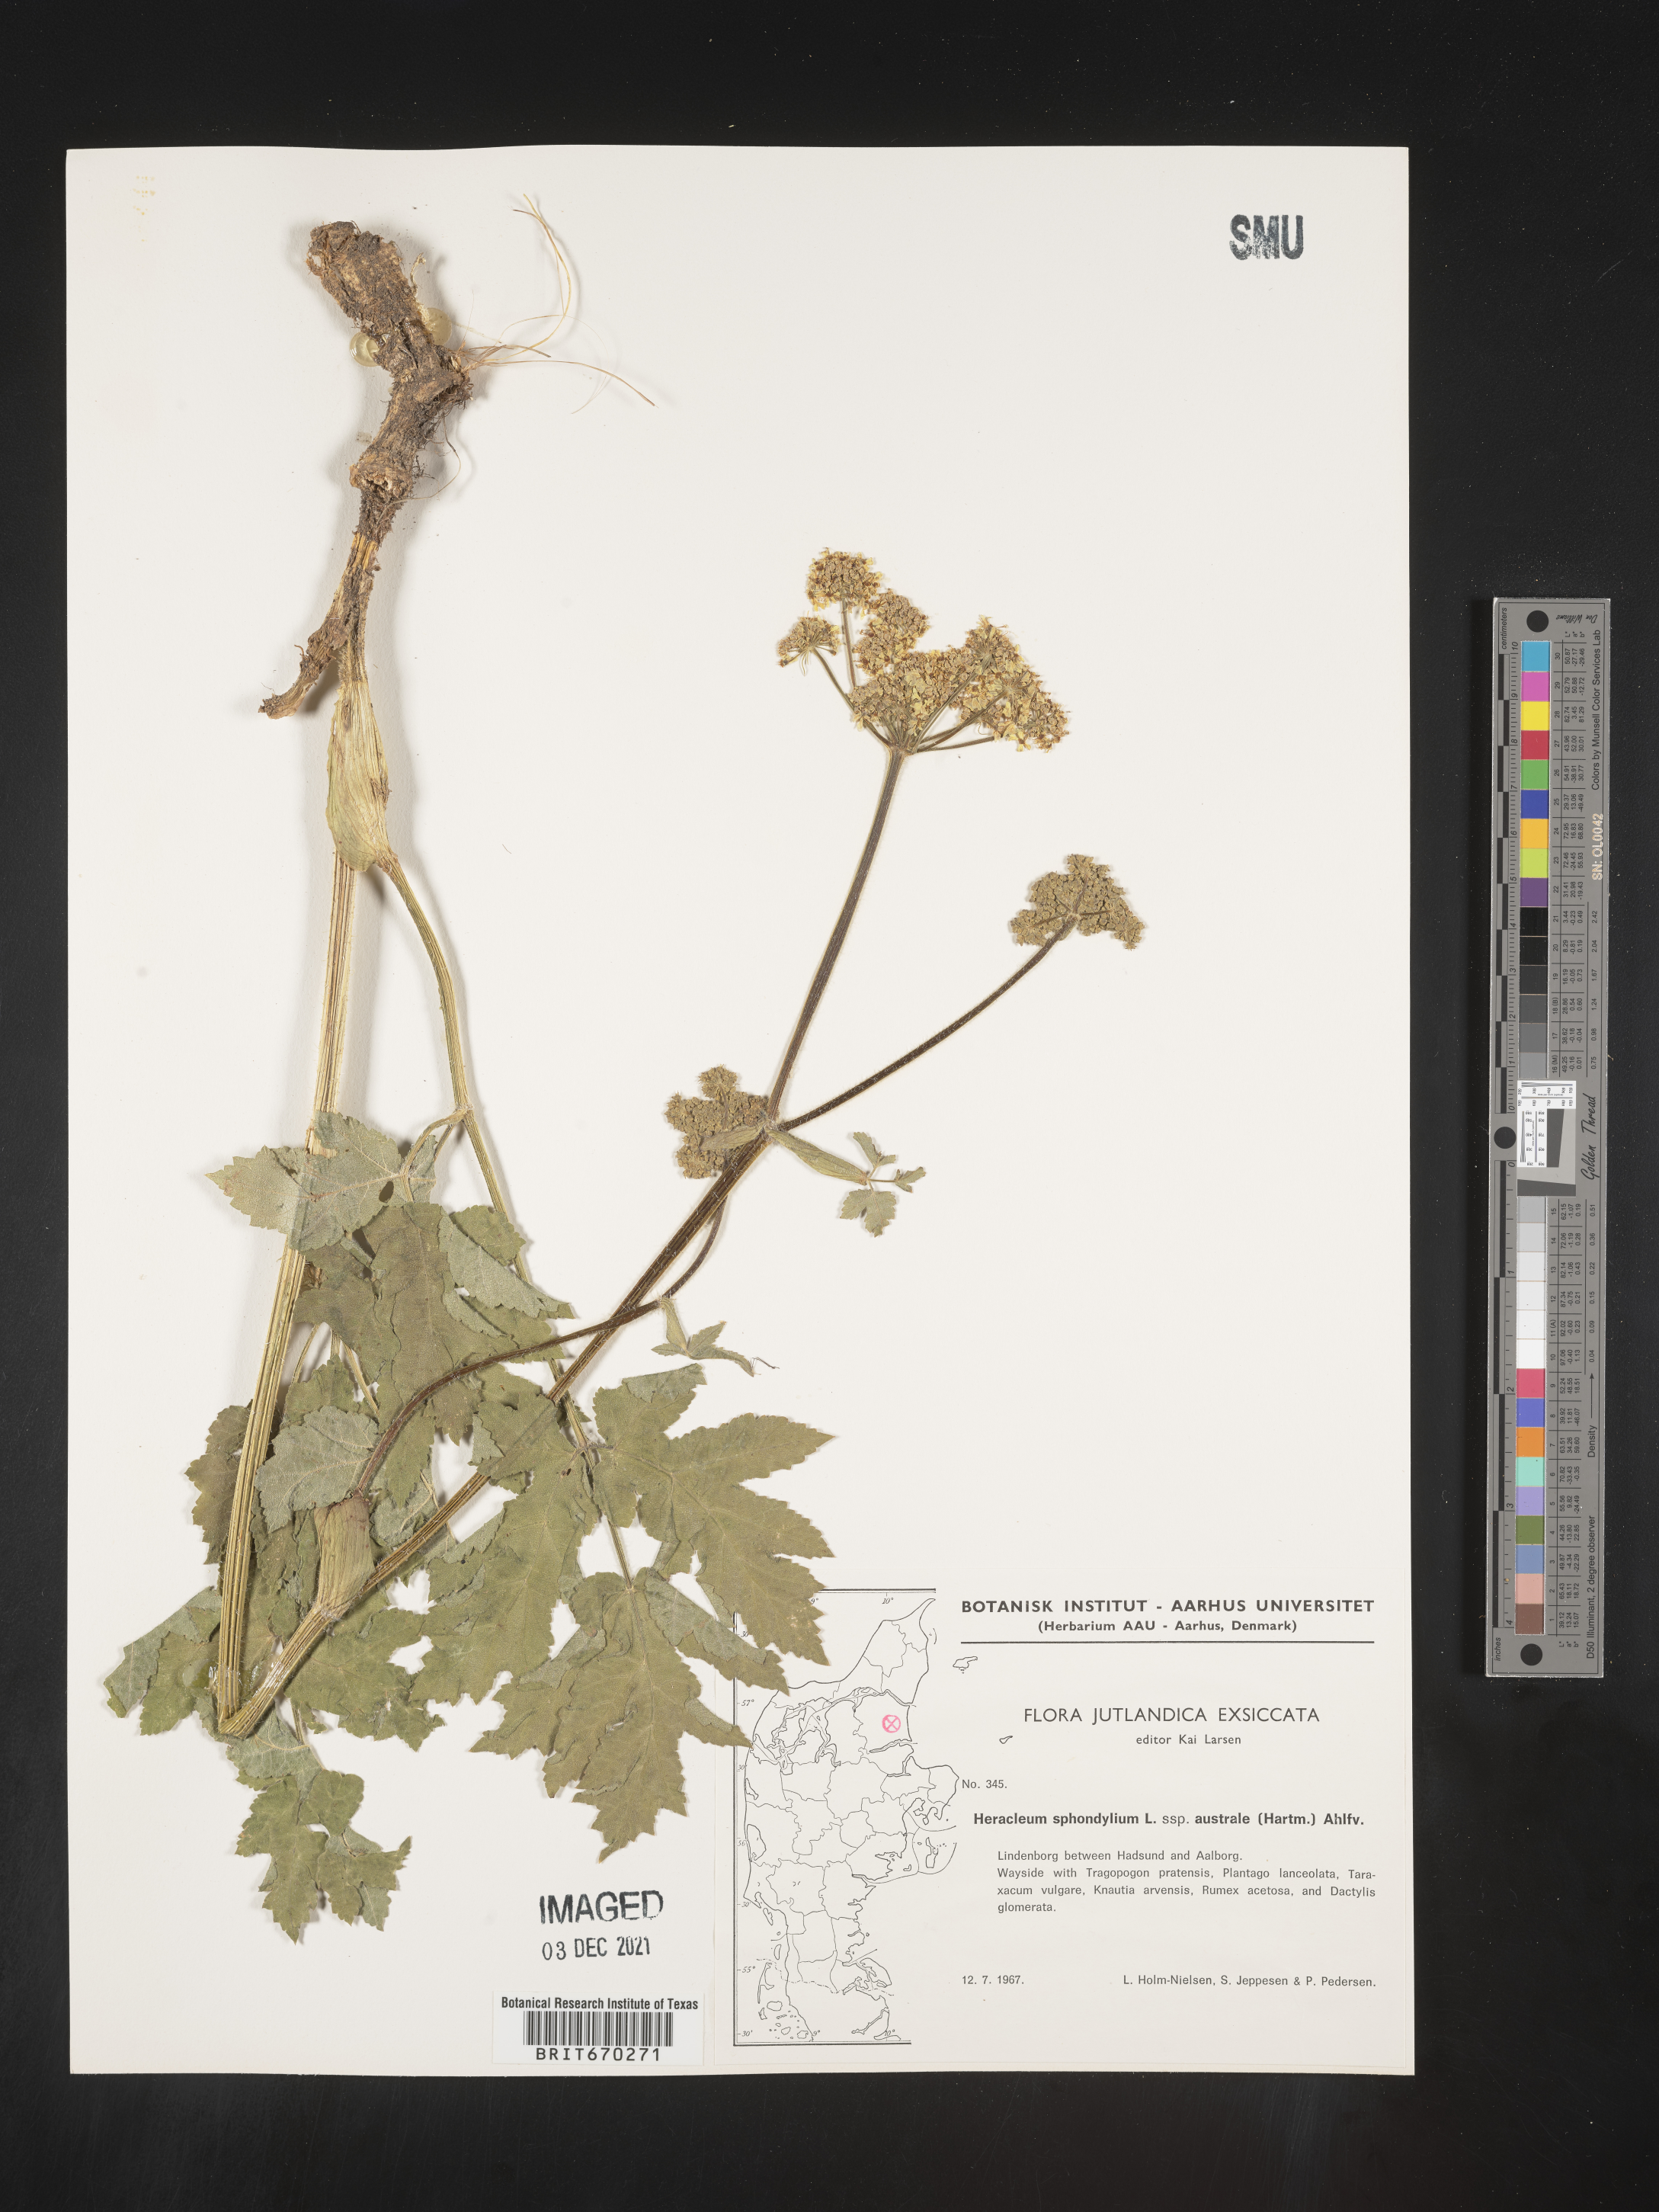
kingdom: Plantae
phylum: Tracheophyta
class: Magnoliopsida
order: Apiales
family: Apiaceae
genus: Heracleum
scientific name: Heracleum
